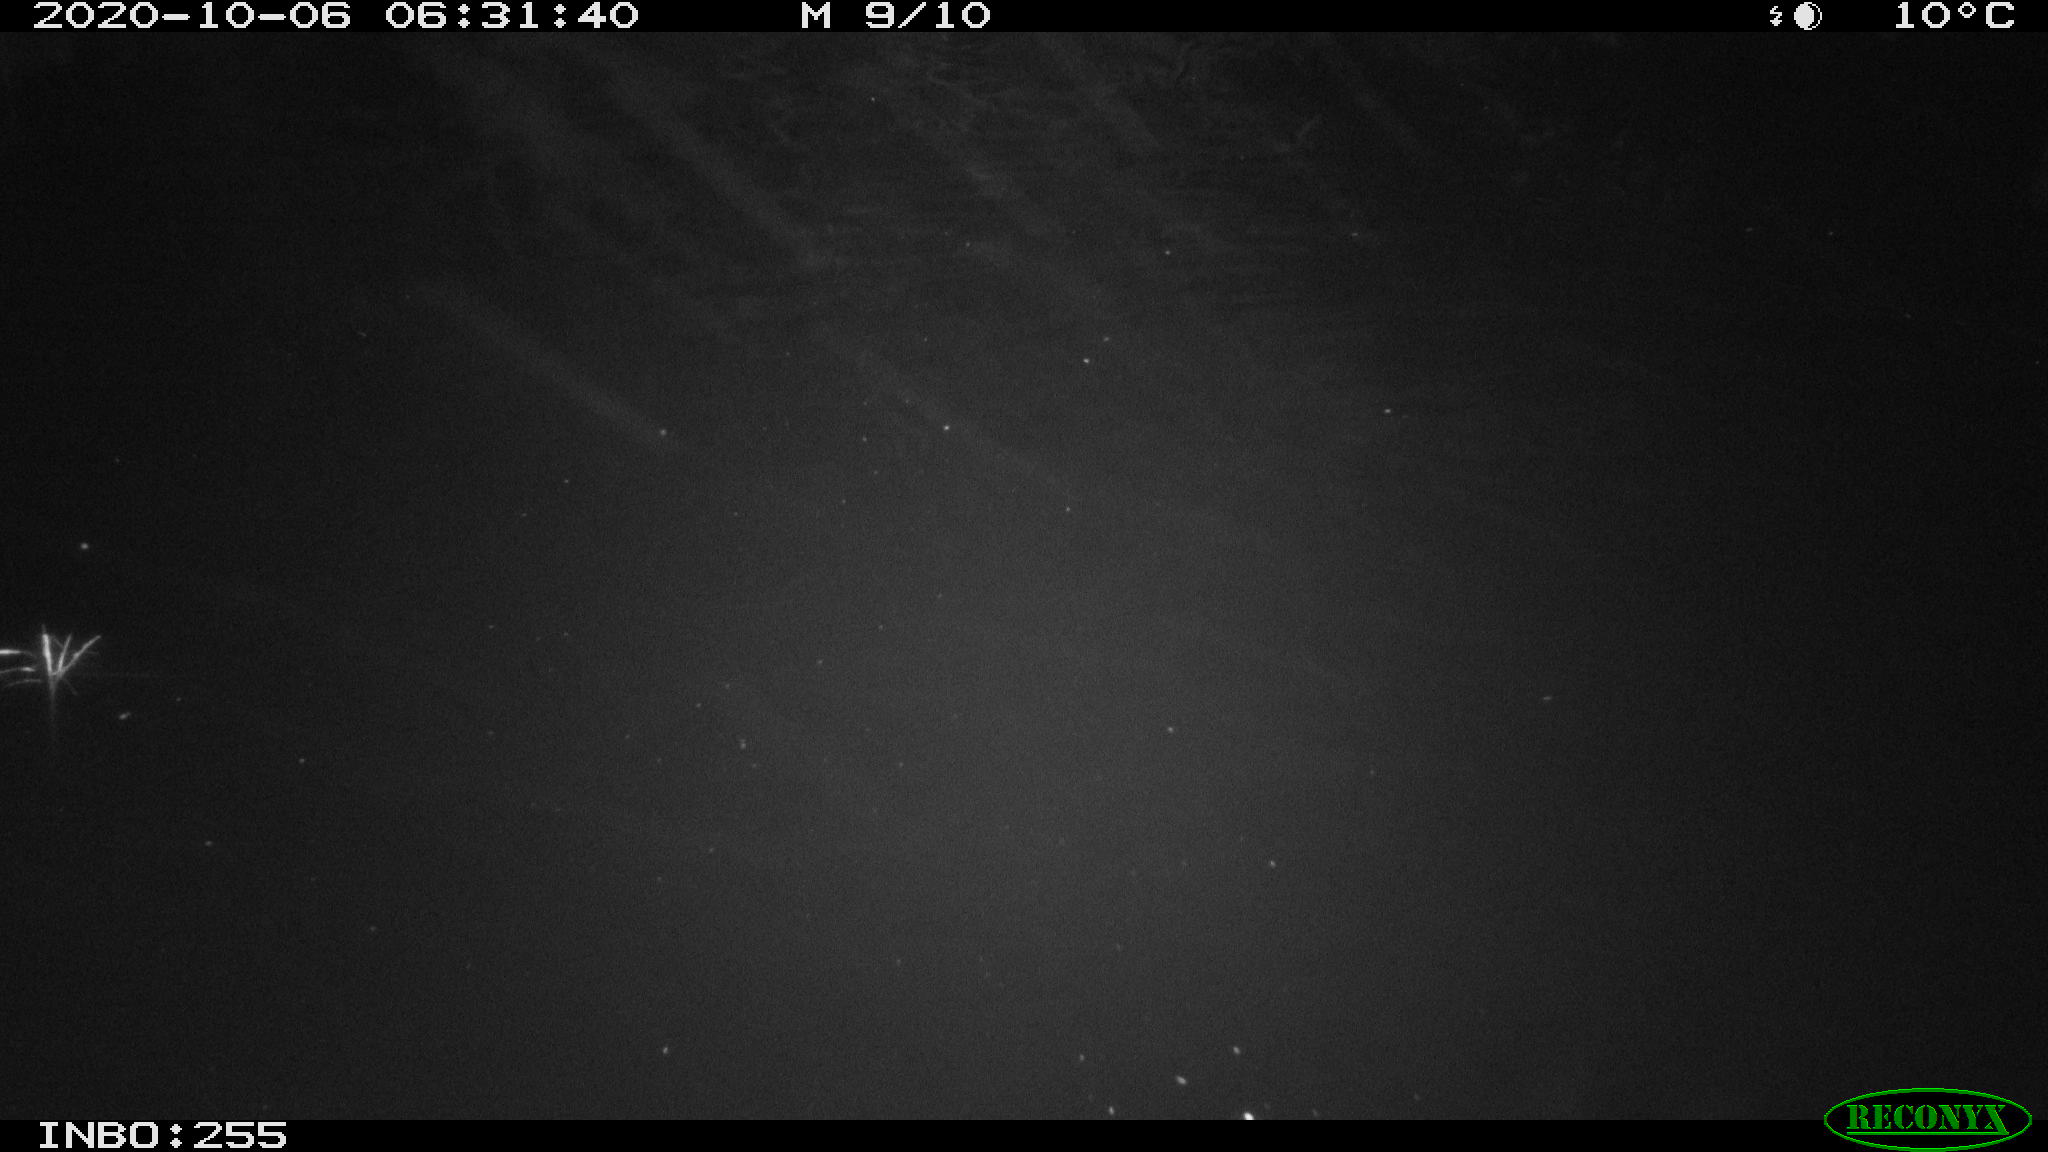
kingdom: Animalia
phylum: Chordata
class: Mammalia
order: Rodentia
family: Muridae
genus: Rattus
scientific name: Rattus norvegicus
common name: Brown rat
